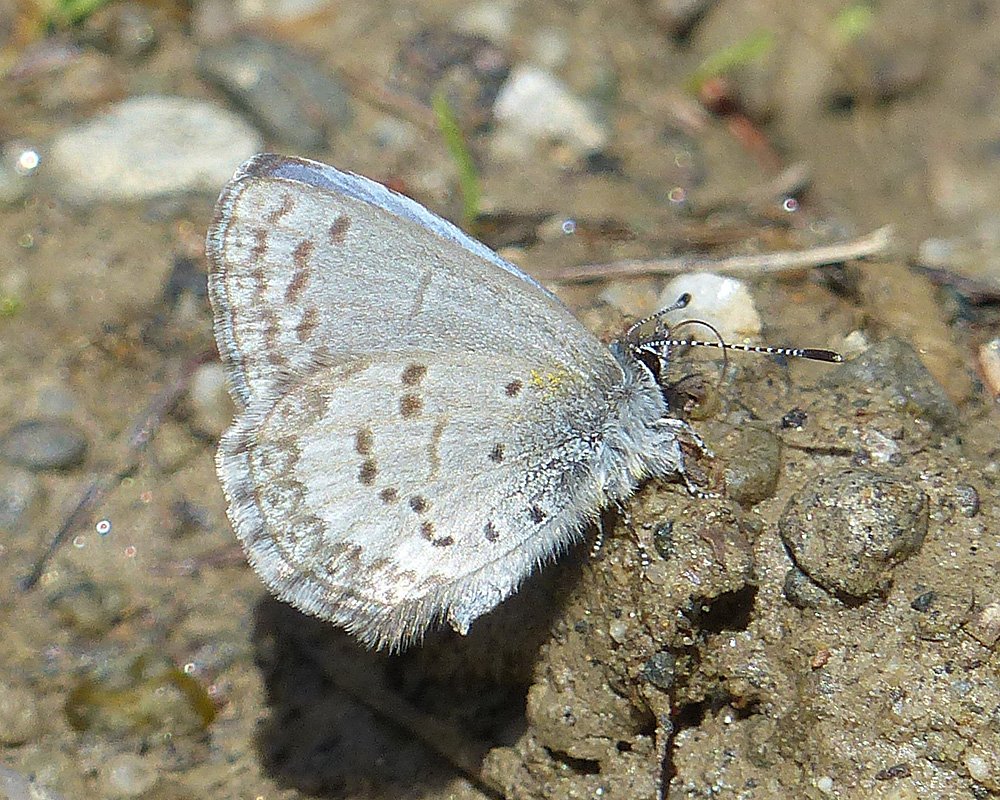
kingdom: Animalia
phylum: Arthropoda
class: Insecta
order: Lepidoptera
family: Lycaenidae
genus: Celastrina
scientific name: Celastrina ladon
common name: Echo Azure
